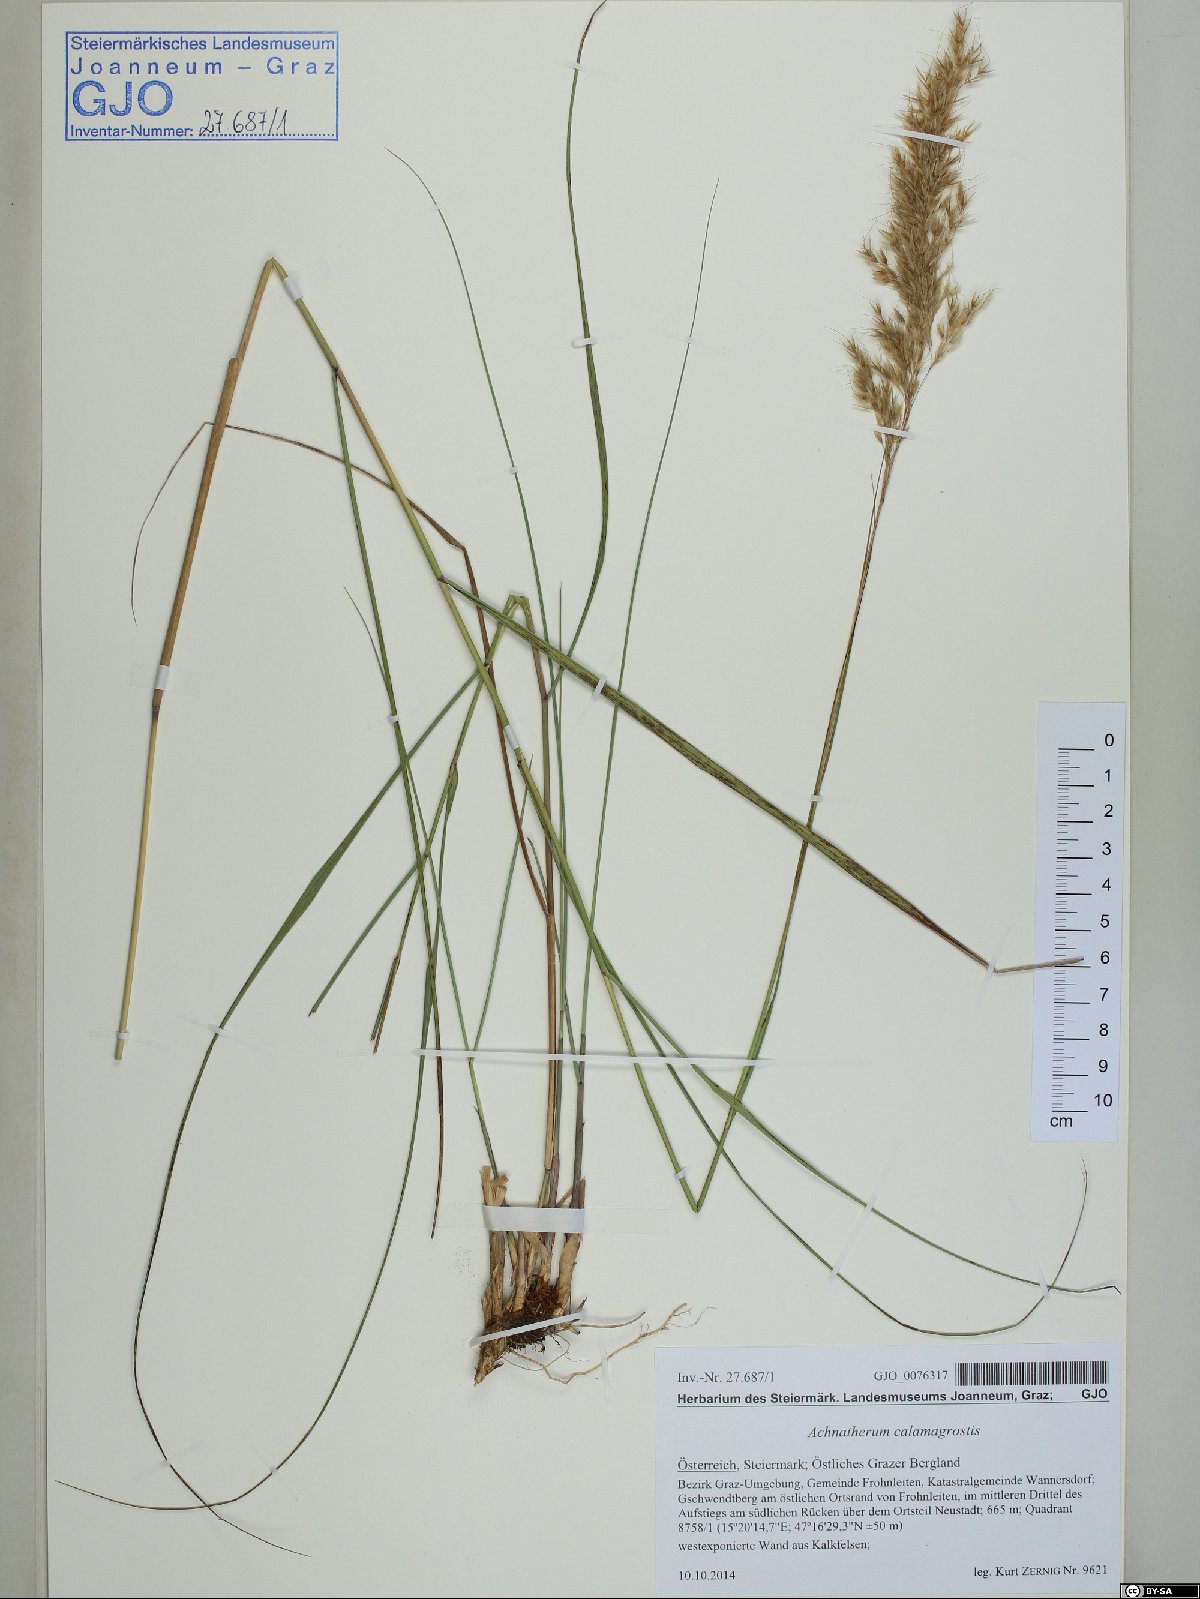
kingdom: Plantae
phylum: Tracheophyta
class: Liliopsida
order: Poales
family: Poaceae
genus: Achnatherum
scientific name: Achnatherum calamagrostis
